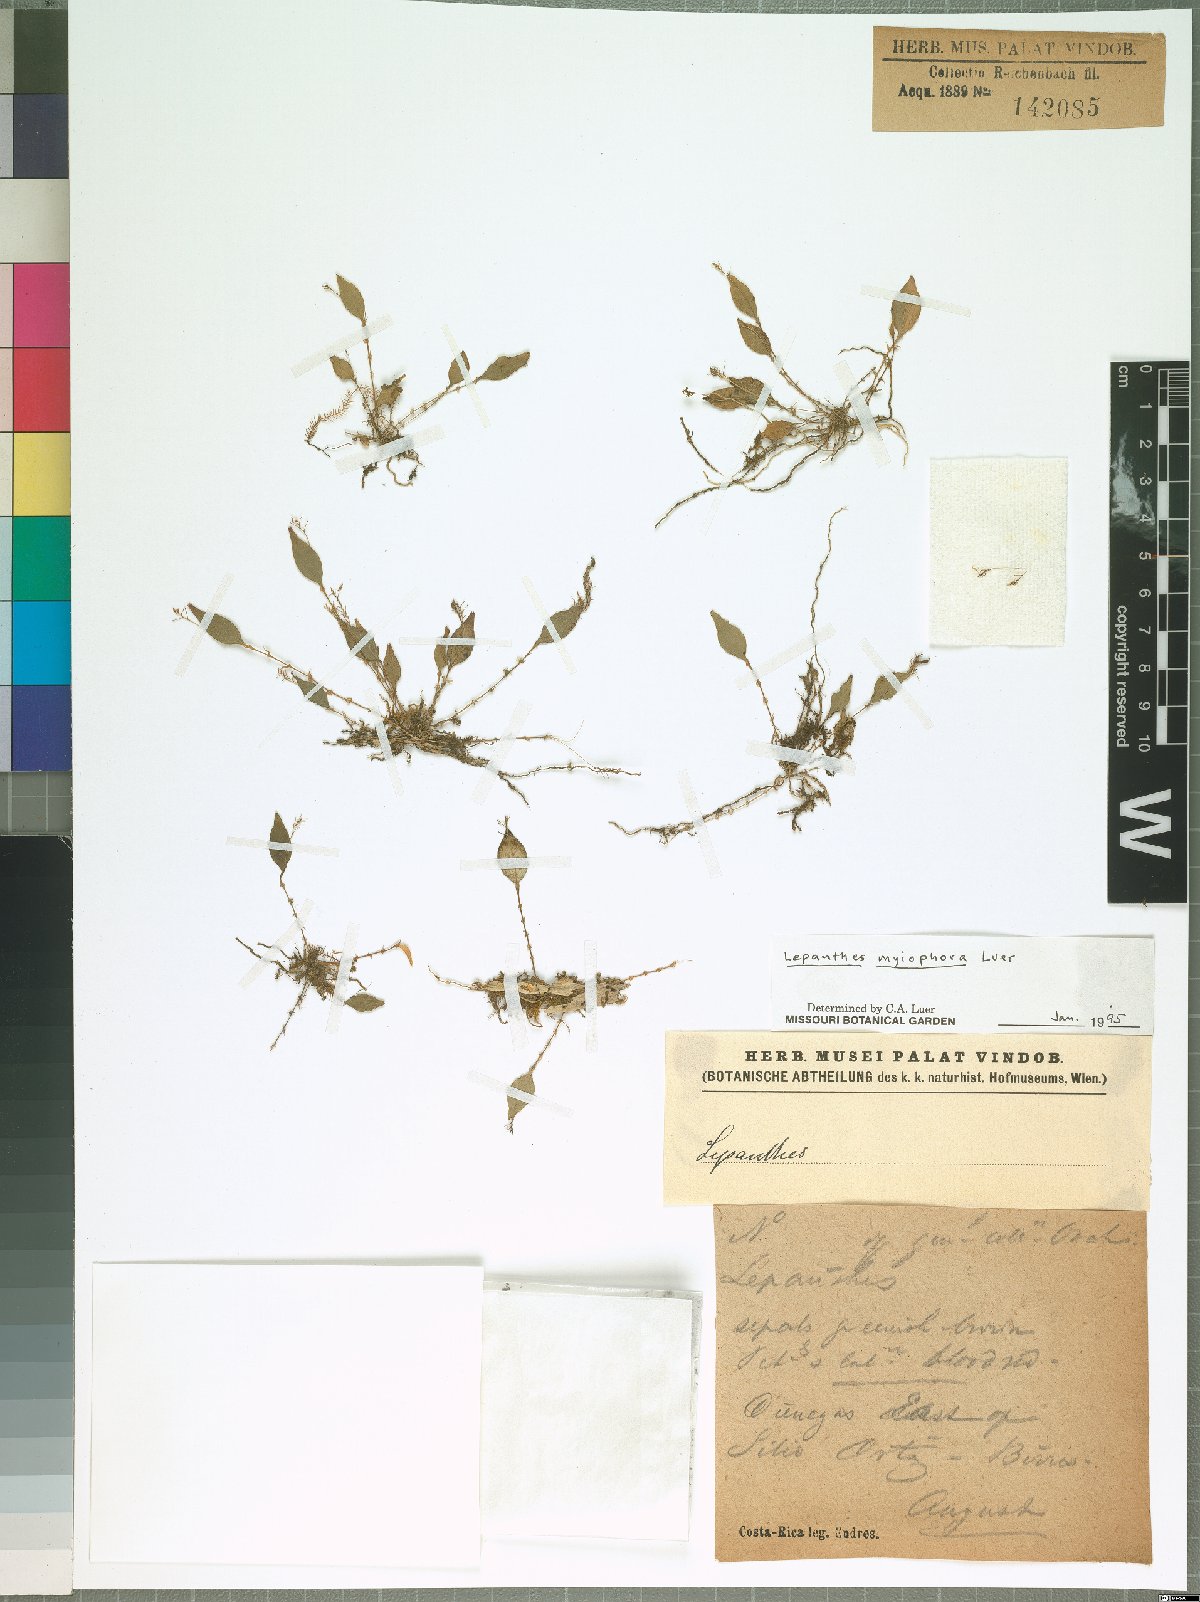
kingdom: Plantae
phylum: Tracheophyta
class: Liliopsida
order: Asparagales
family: Orchidaceae
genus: Lepanthes
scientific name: Lepanthes myiophora
